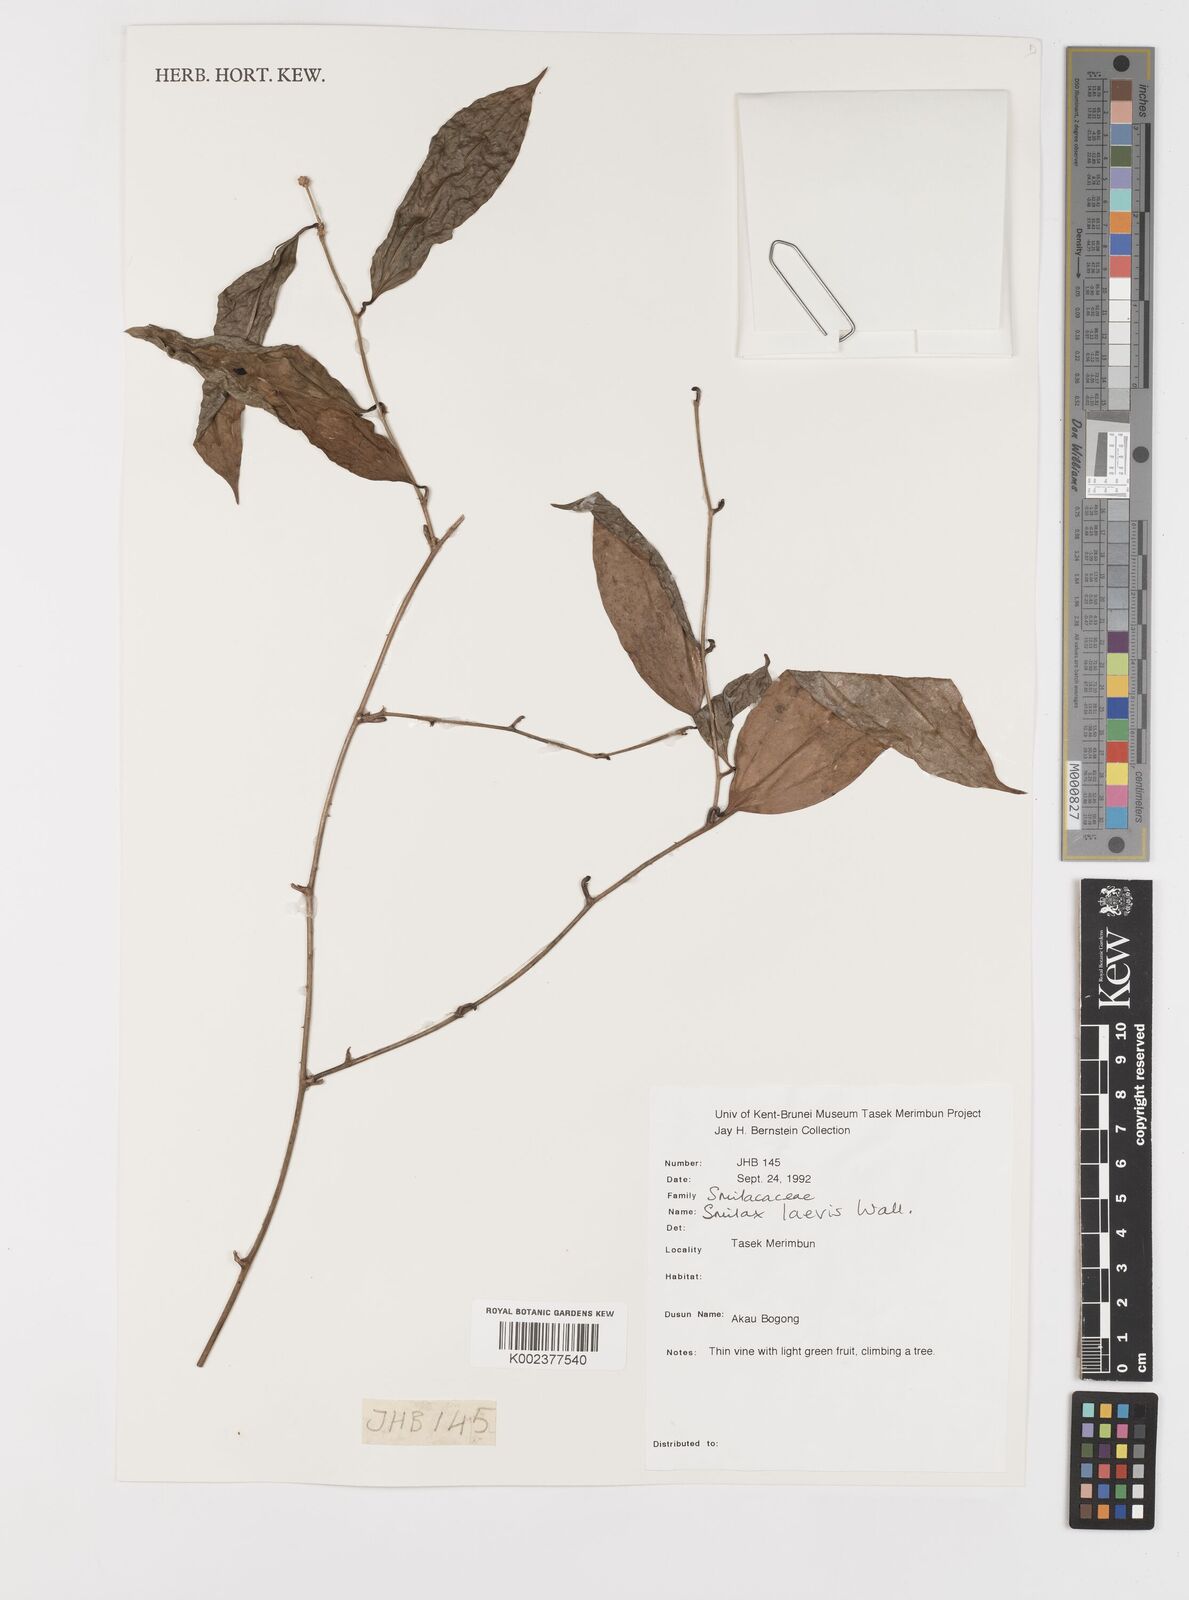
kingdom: Plantae
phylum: Tracheophyta
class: Liliopsida
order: Liliales
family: Smilacaceae
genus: Smilax
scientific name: Smilax laevis
